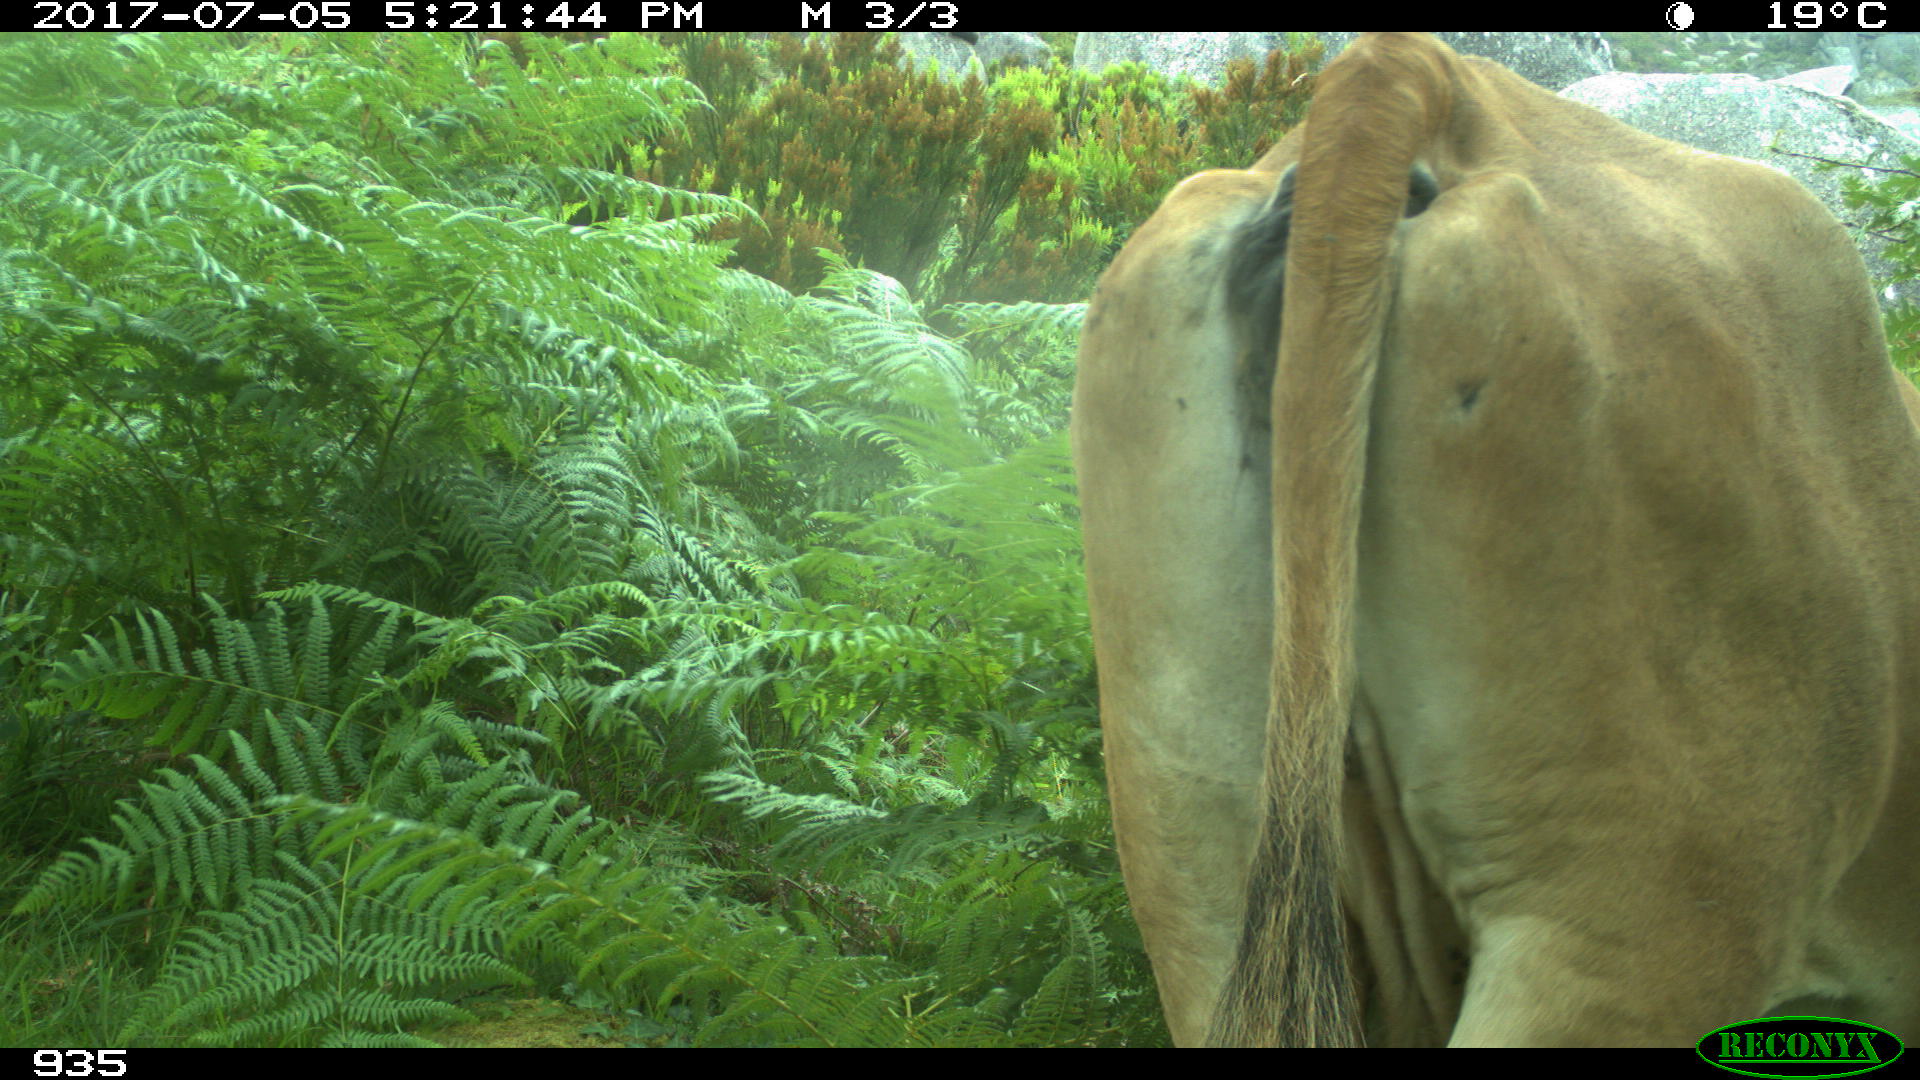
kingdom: Animalia
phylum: Chordata
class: Mammalia
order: Artiodactyla
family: Bovidae
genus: Bos
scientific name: Bos taurus
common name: Domesticated cattle
